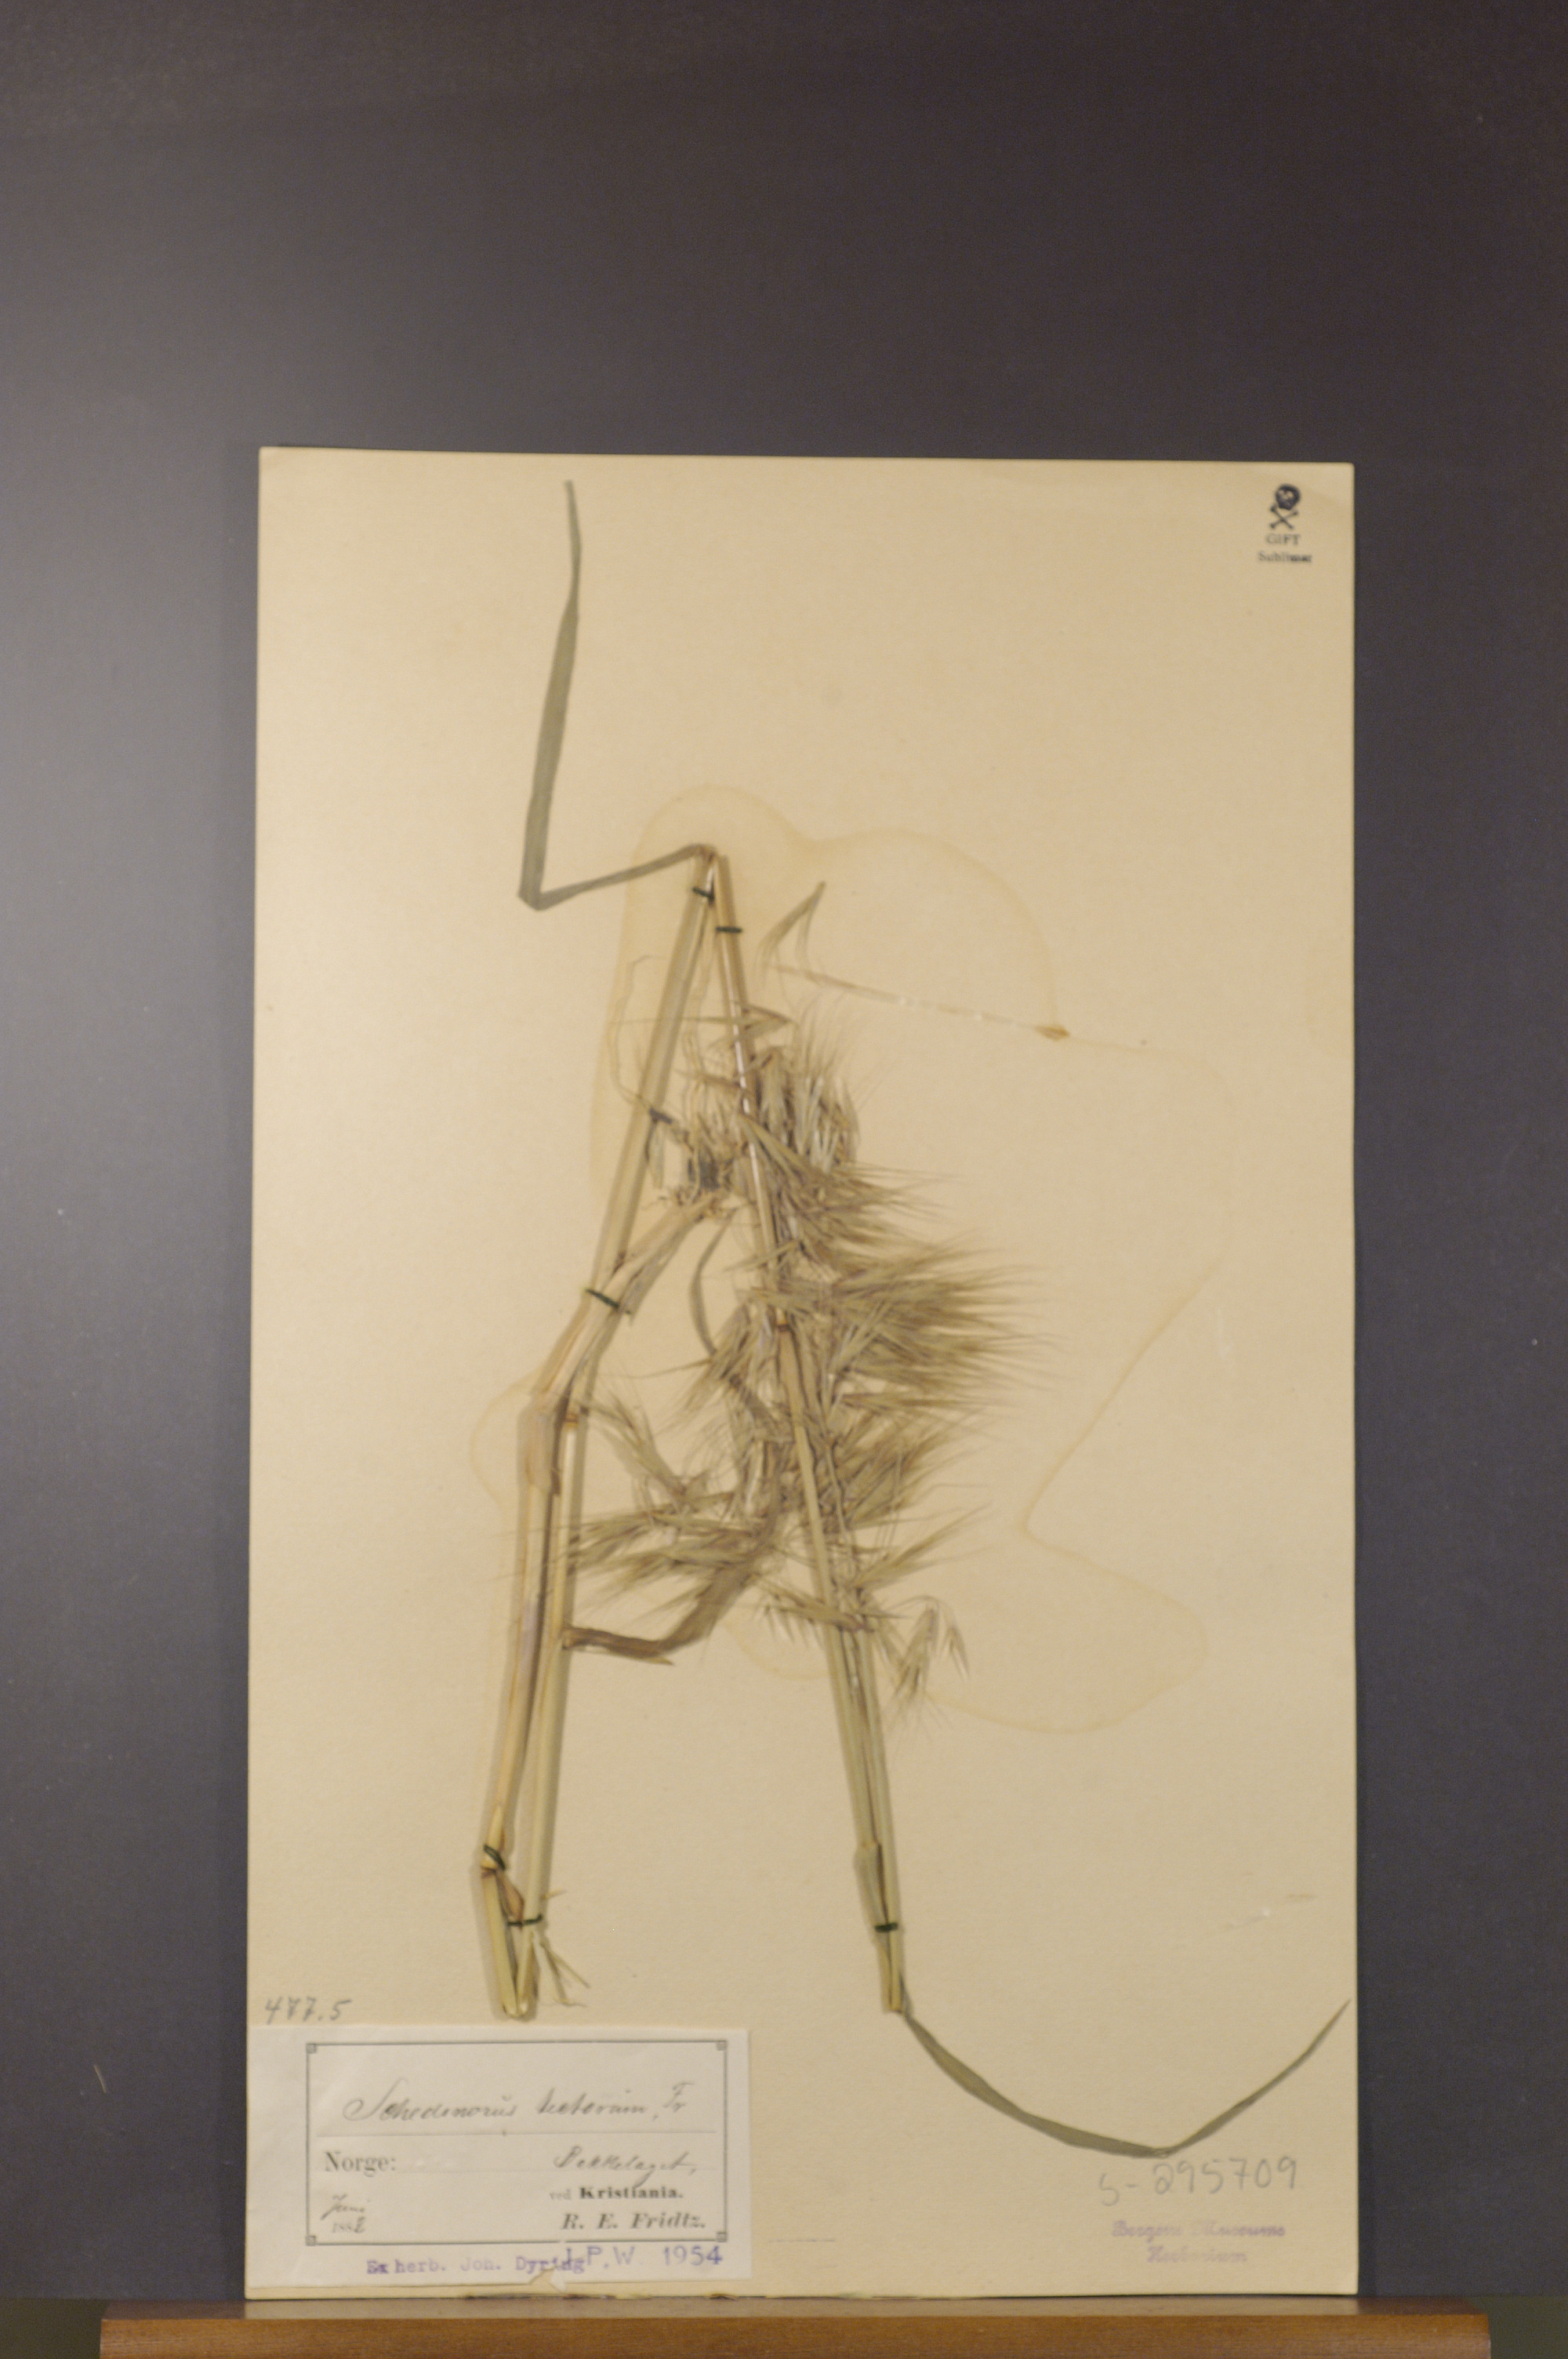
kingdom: Plantae
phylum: Tracheophyta
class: Liliopsida
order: Poales
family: Poaceae
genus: Bromus
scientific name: Bromus tectorum
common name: Cheatgrass
